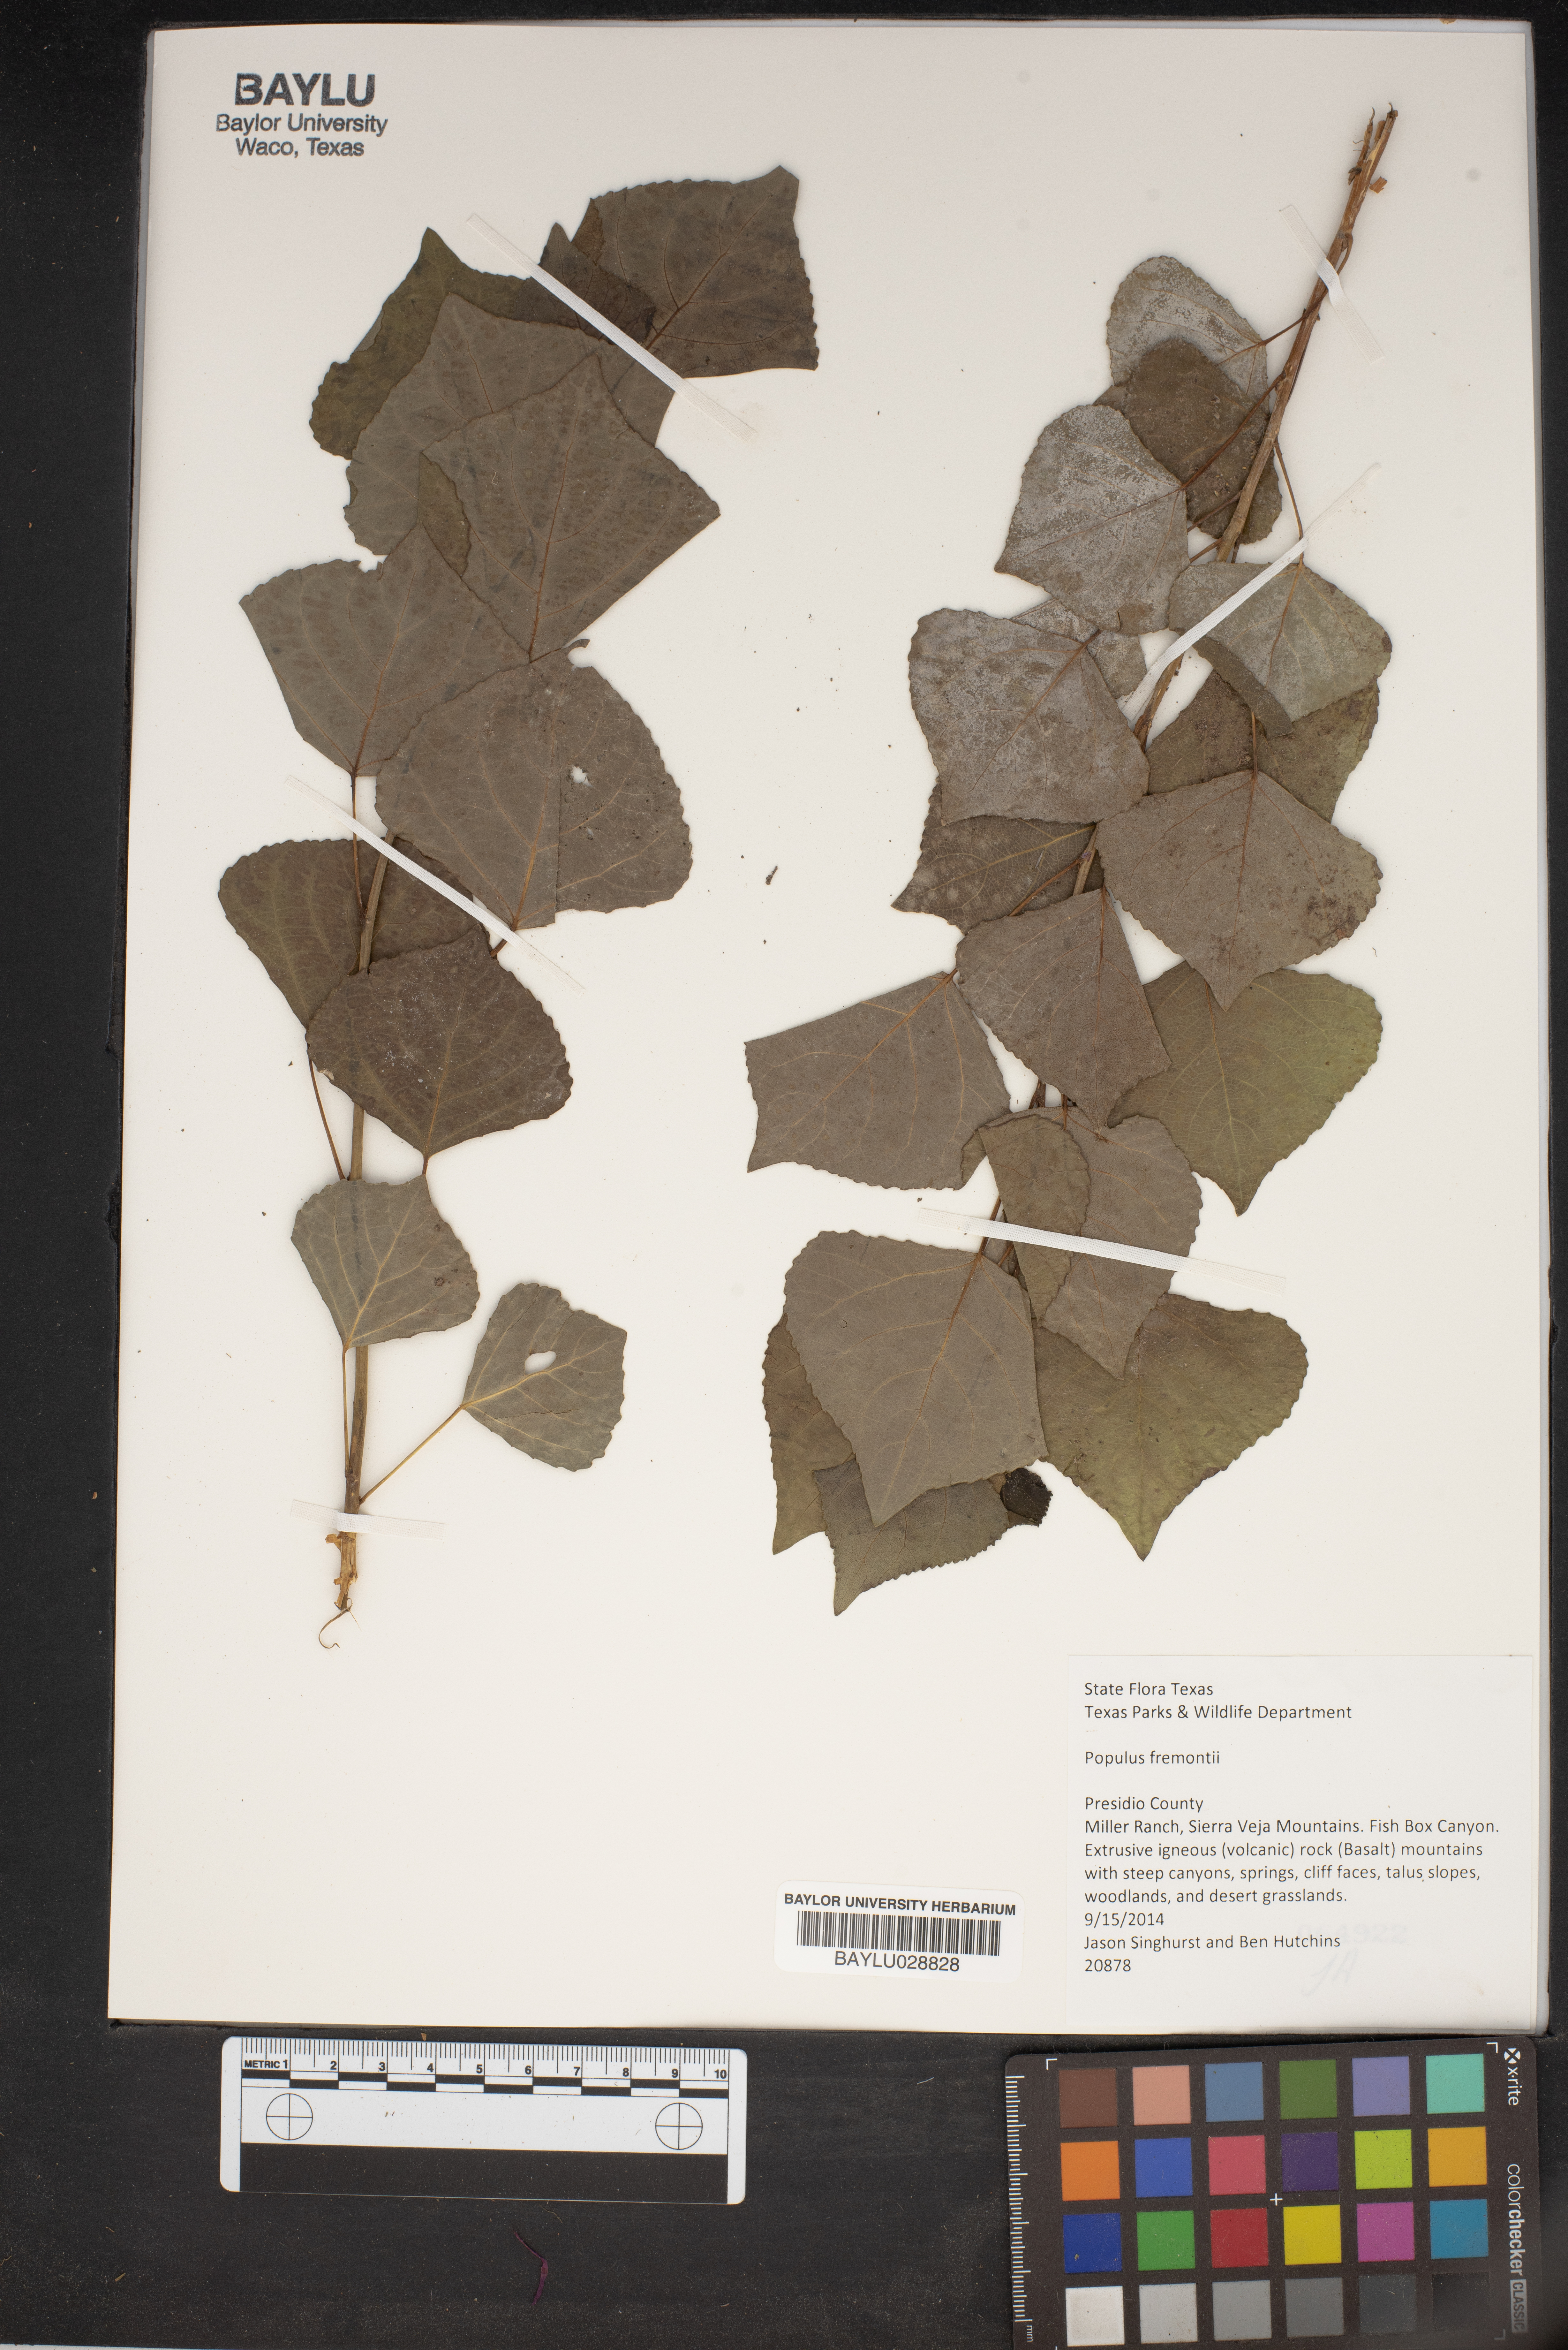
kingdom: Plantae
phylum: Tracheophyta
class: Magnoliopsida
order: Malpighiales
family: Salicaceae
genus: Populus
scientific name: Populus fremontii
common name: Fremont's cottonwood
